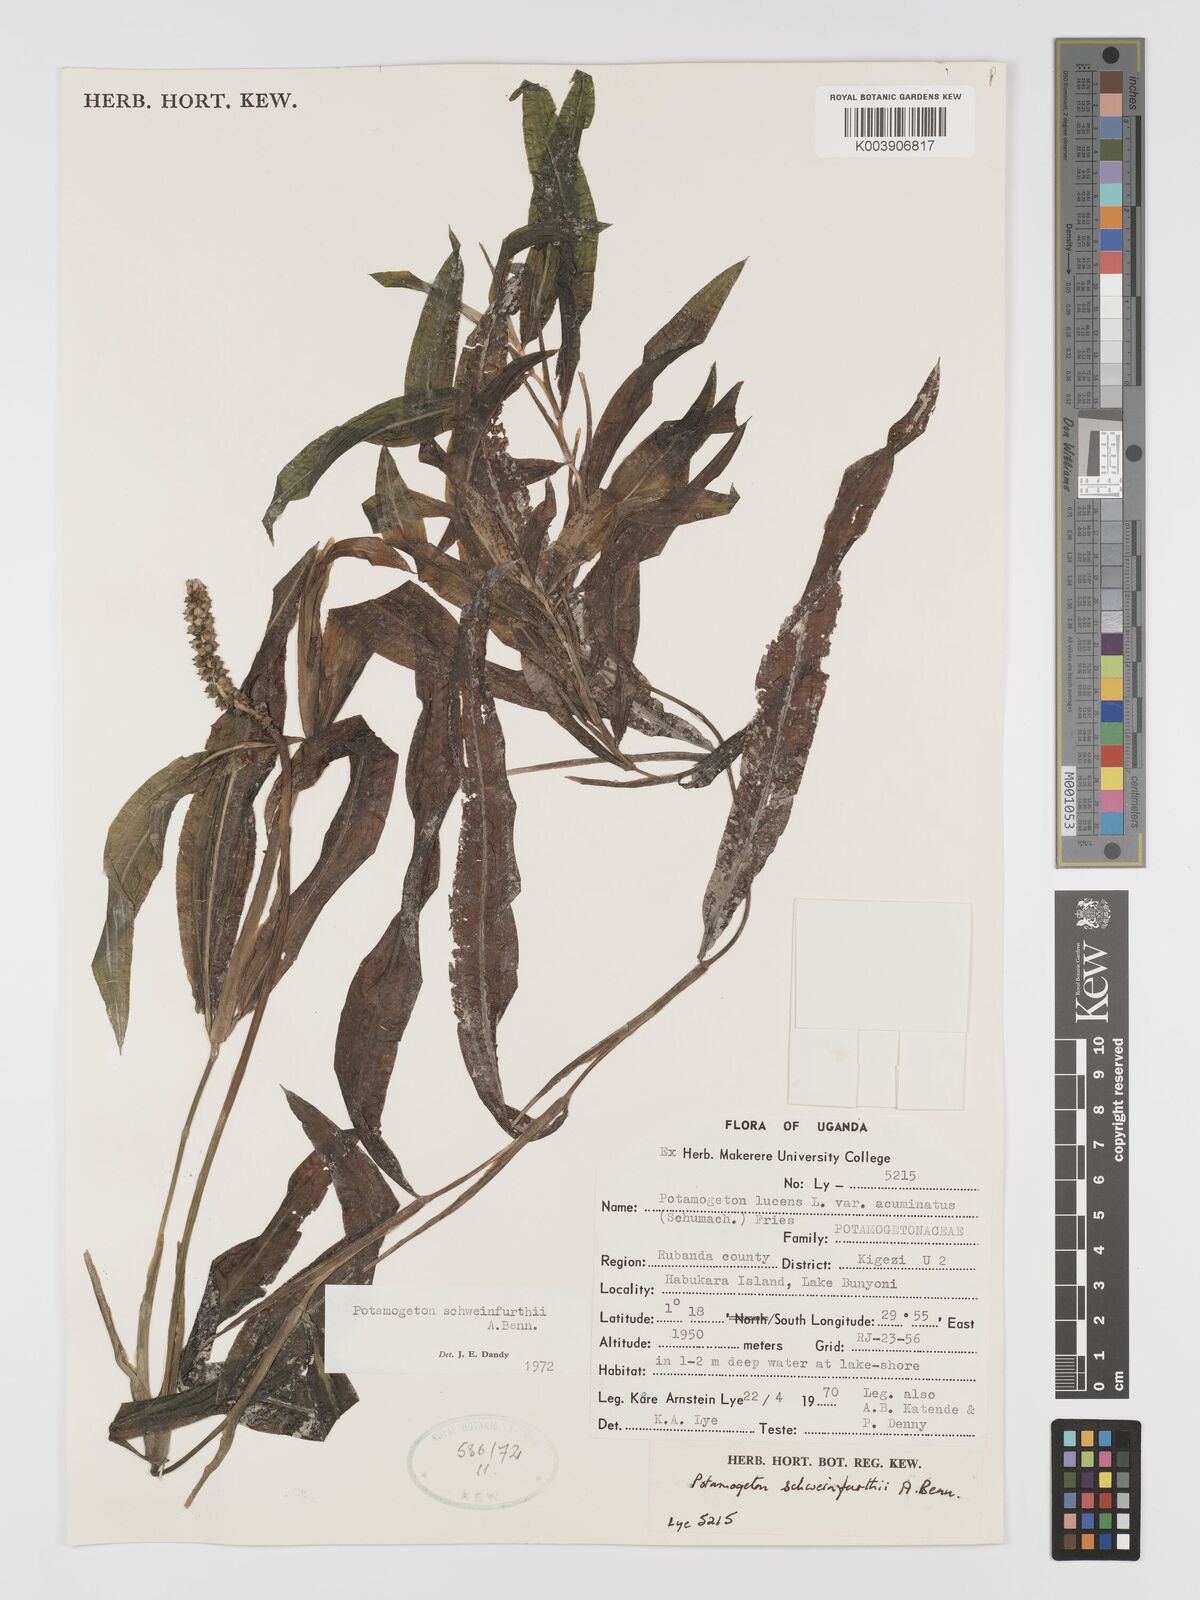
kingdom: Plantae
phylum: Tracheophyta
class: Liliopsida
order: Alismatales
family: Potamogetonaceae
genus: Potamogeton
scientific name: Potamogeton schweinfurthii
